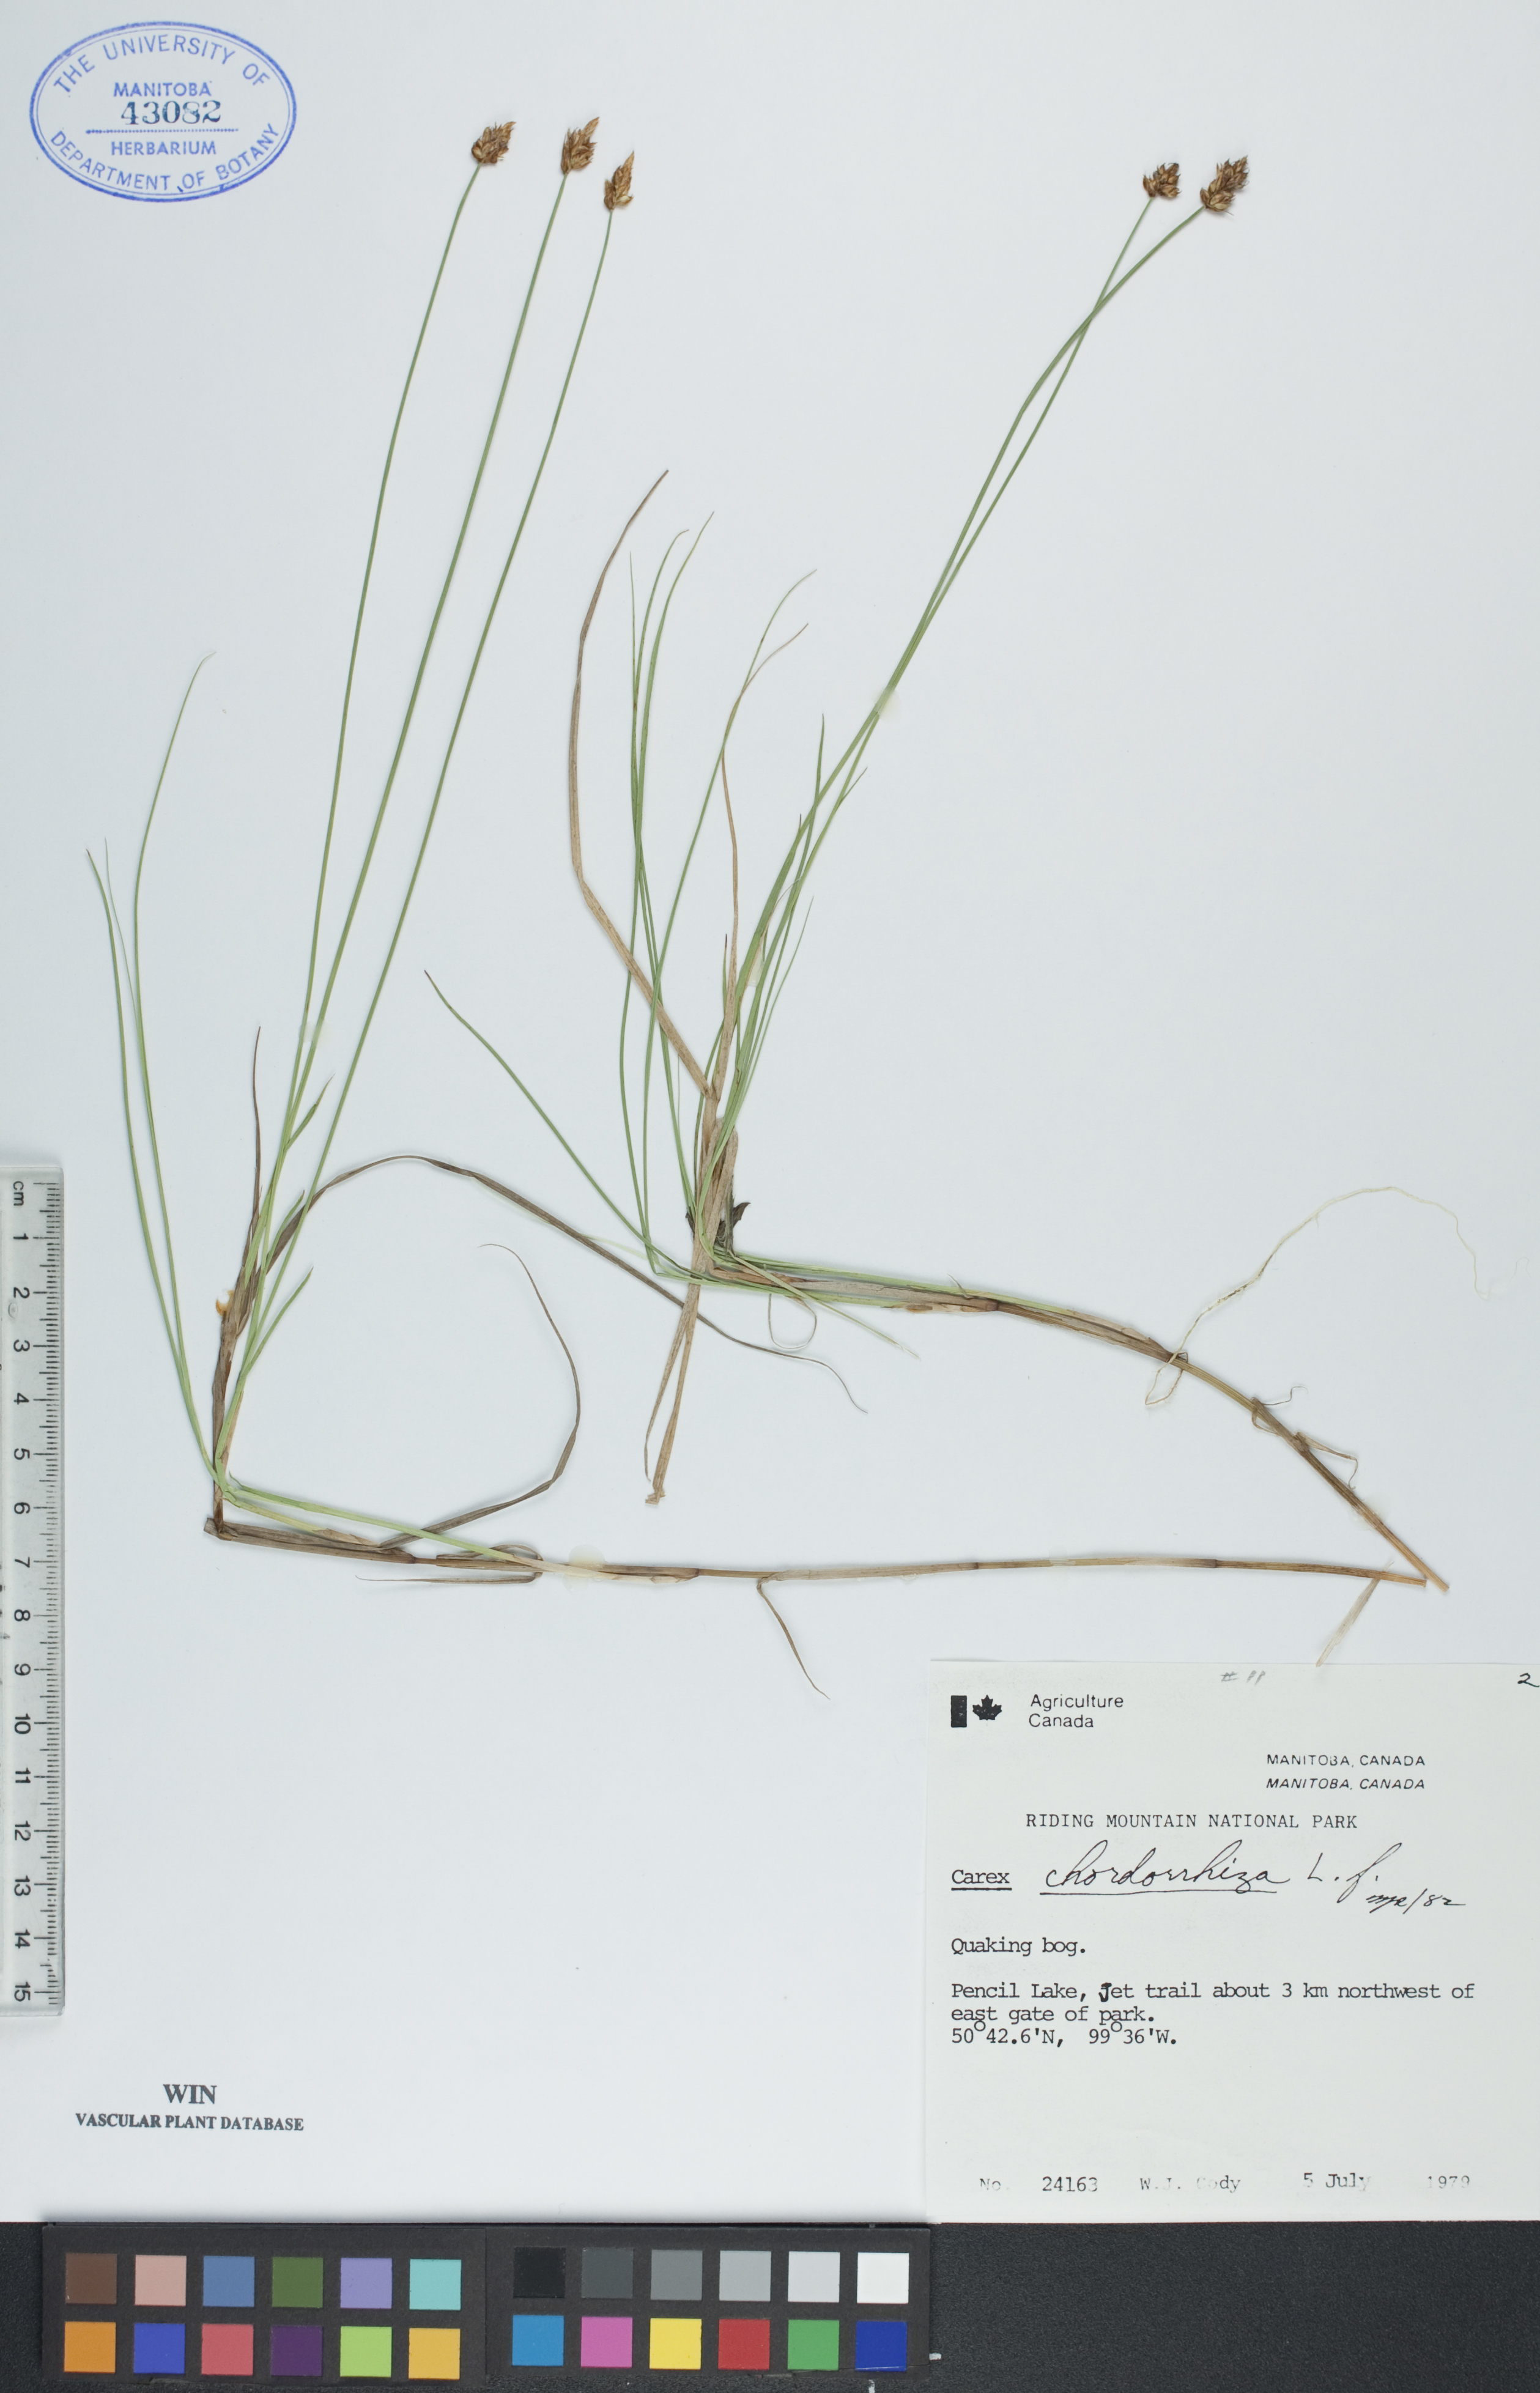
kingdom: Plantae
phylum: Tracheophyta
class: Liliopsida
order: Poales
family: Cyperaceae
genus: Carex
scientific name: Carex chordorrhiza
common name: String sedge
